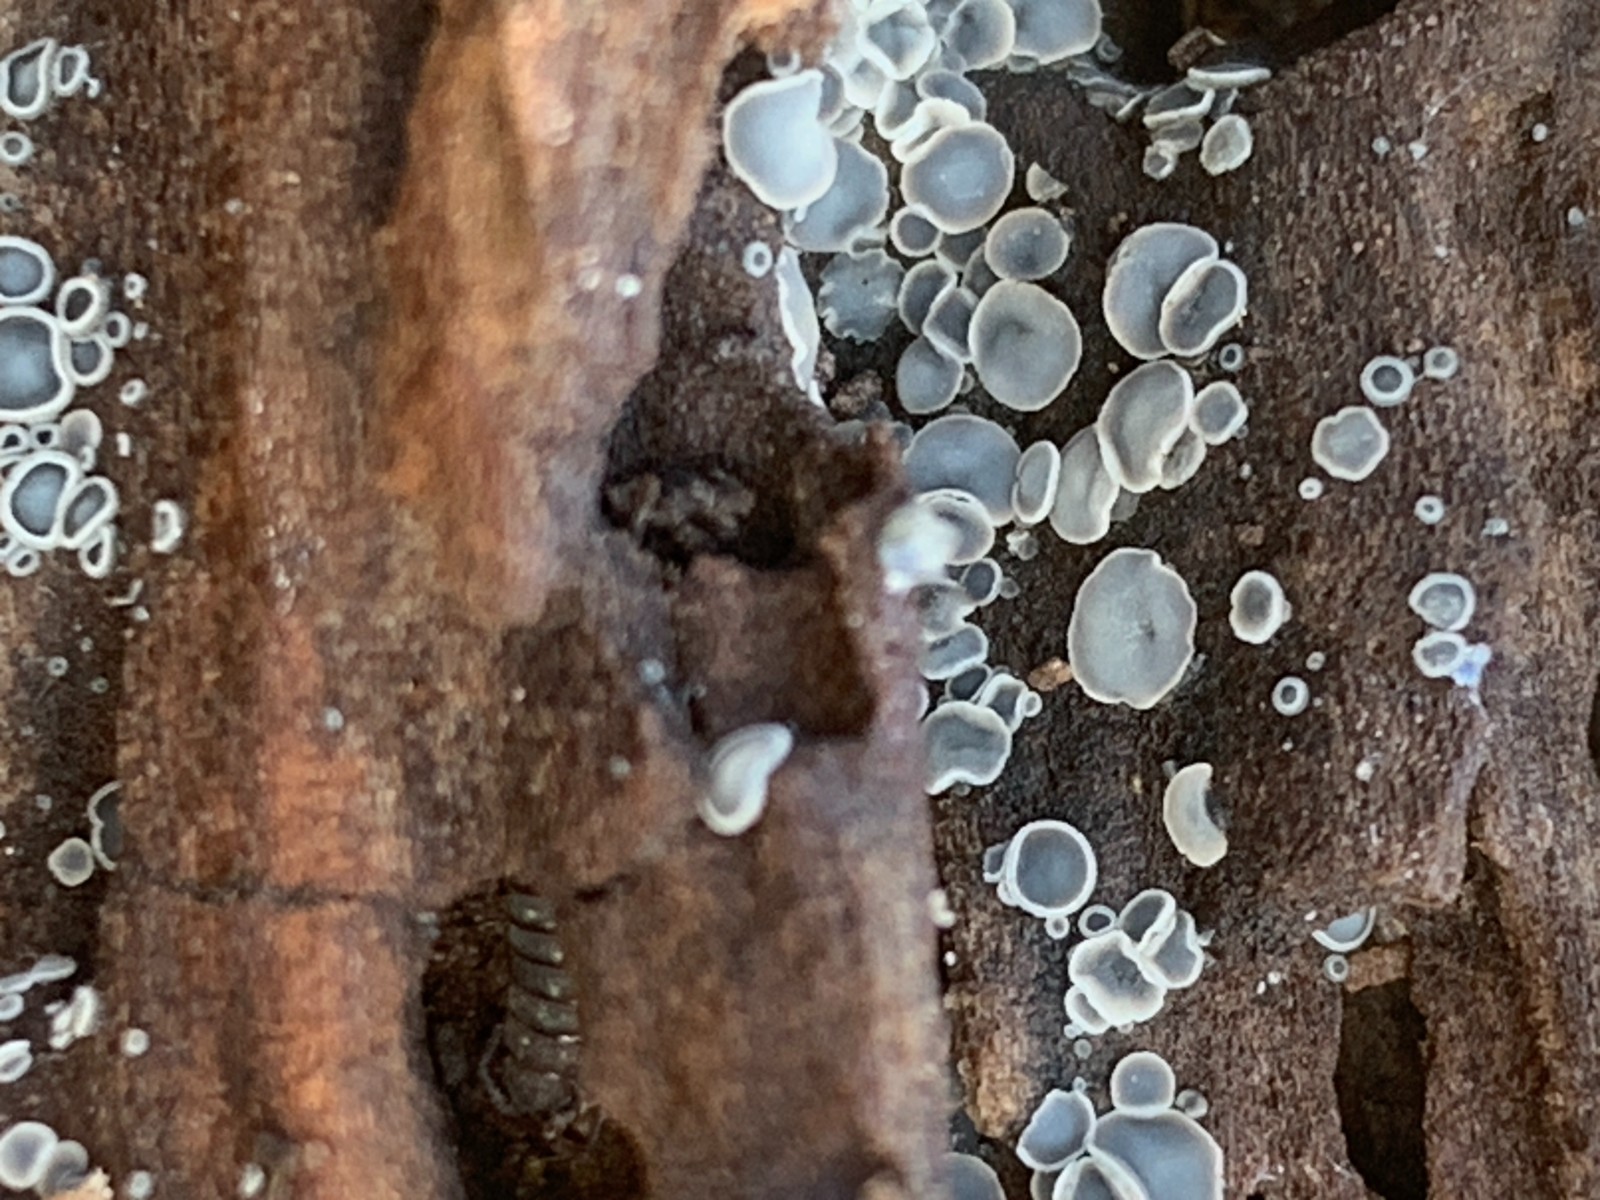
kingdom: Fungi
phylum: Ascomycota
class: Leotiomycetes
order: Helotiales
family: Mollisiaceae
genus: Mollisia
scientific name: Mollisia cinerea
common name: almindelig gråskive
